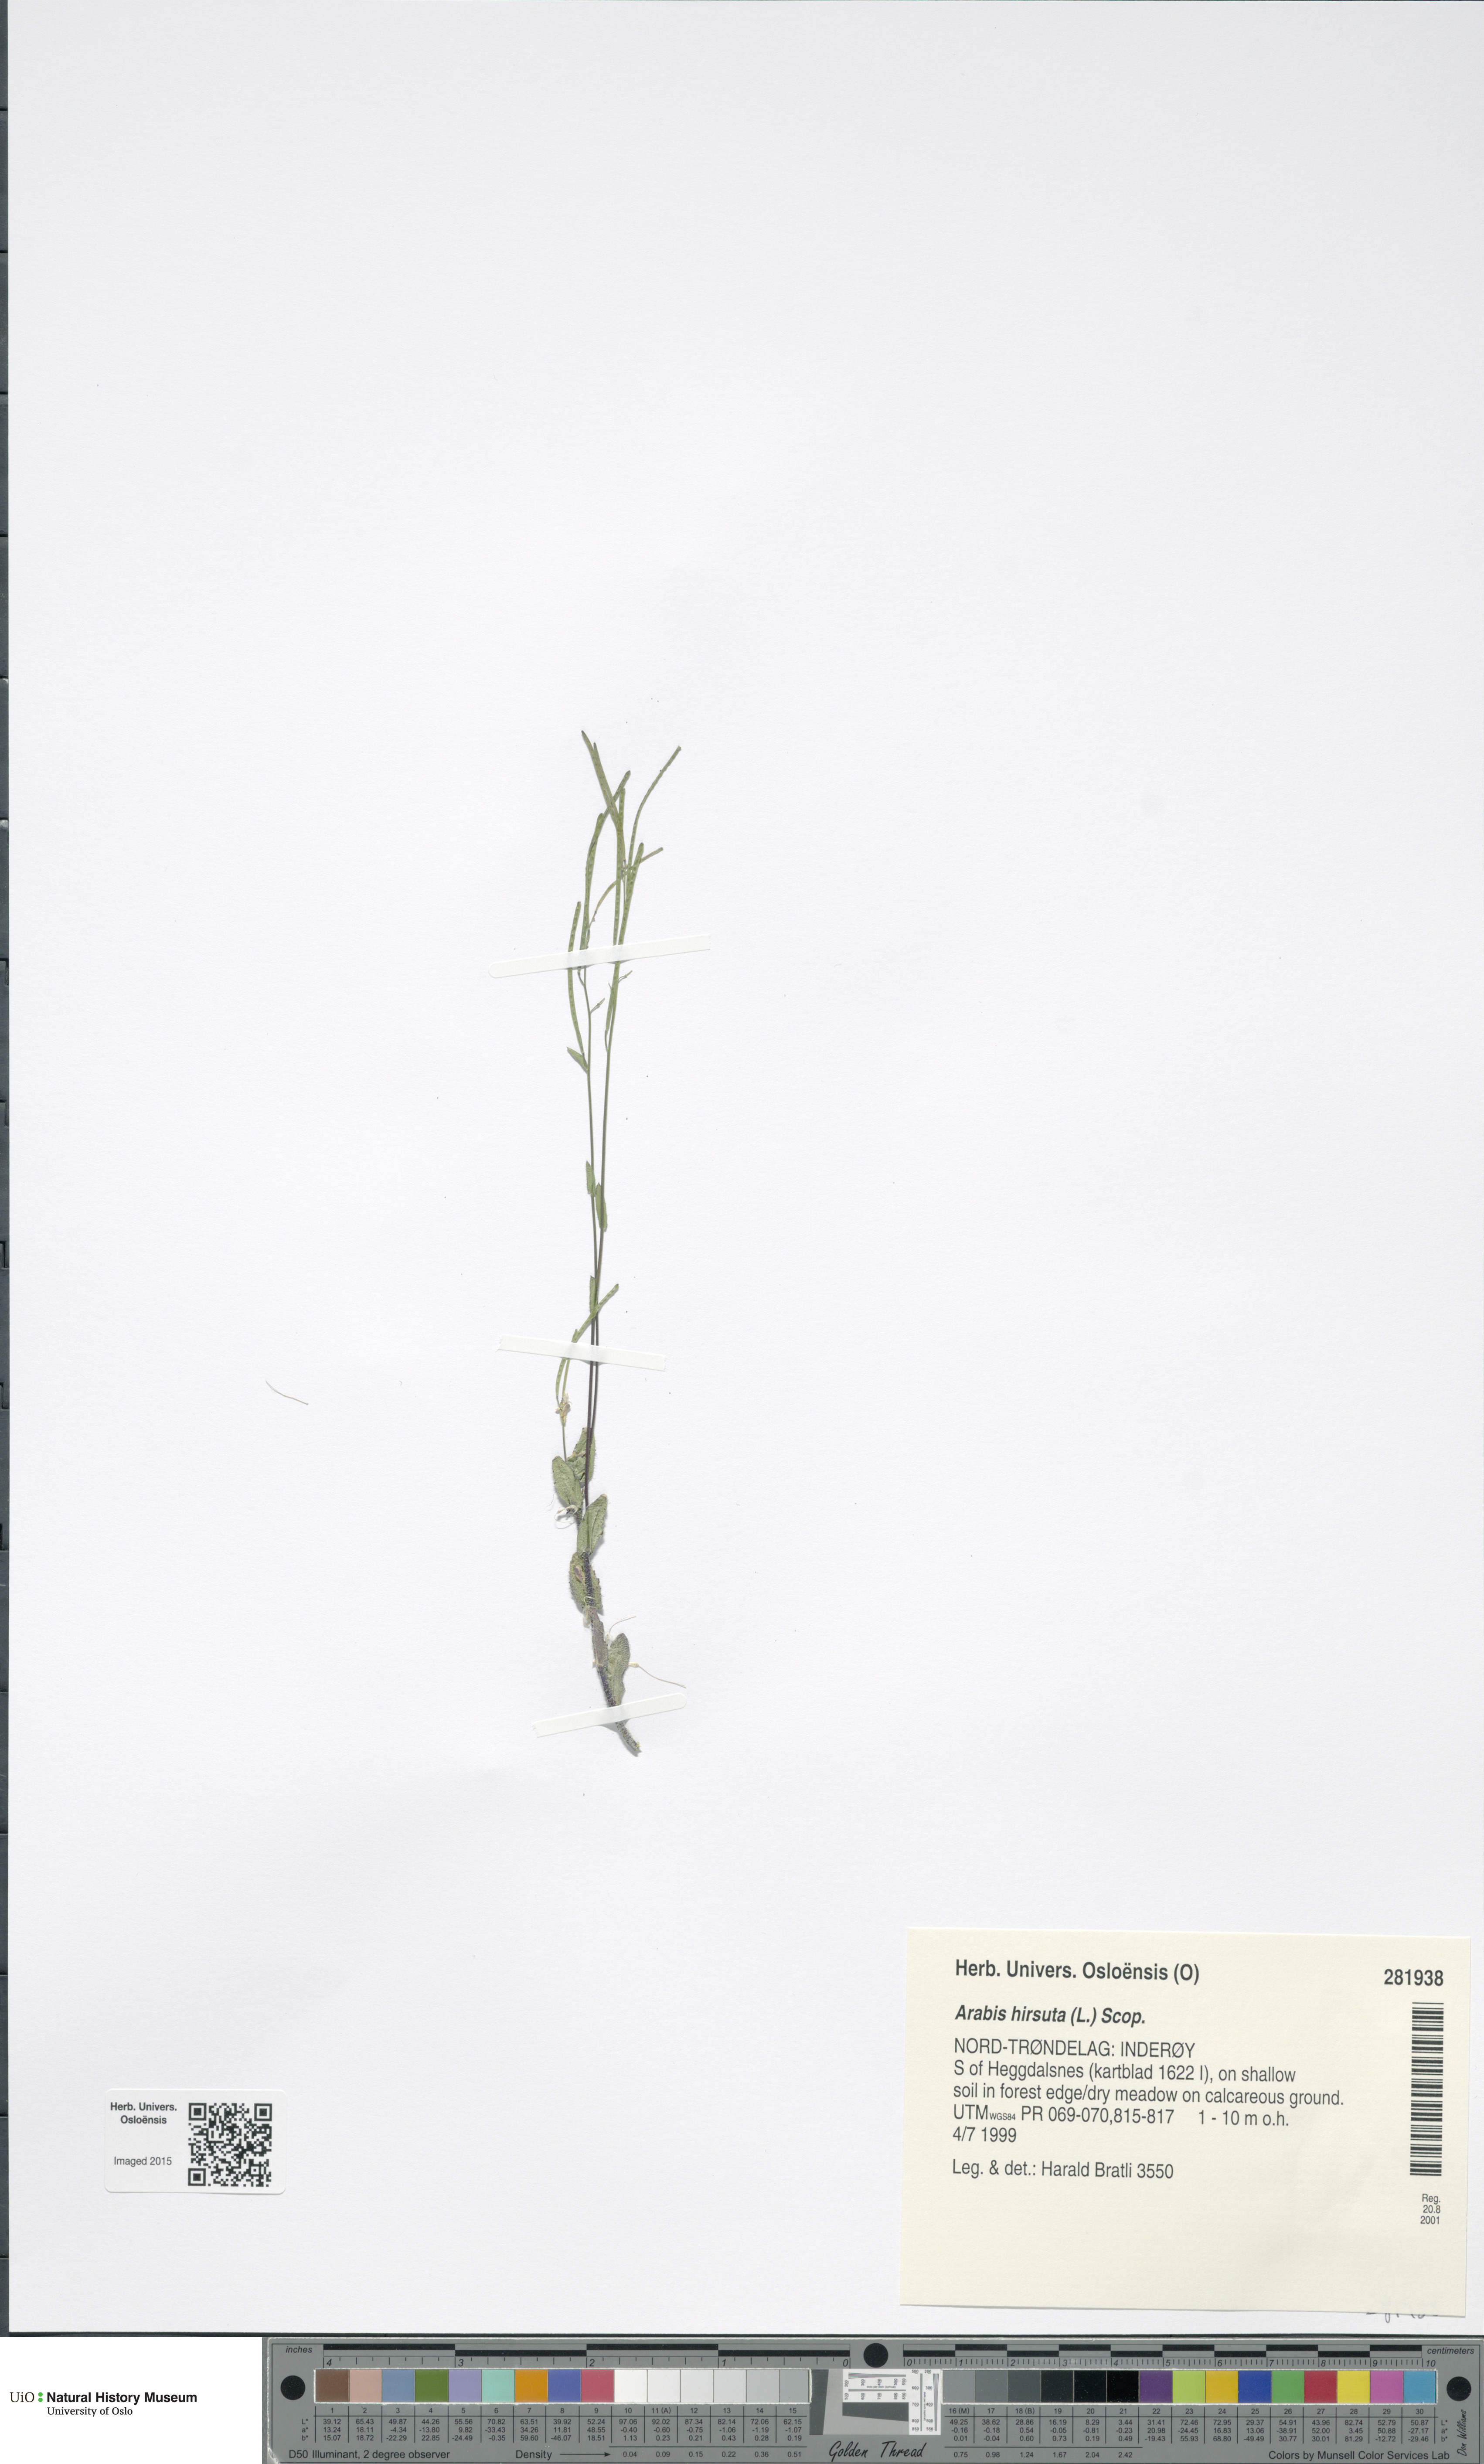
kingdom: Plantae
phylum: Tracheophyta
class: Magnoliopsida
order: Brassicales
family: Brassicaceae
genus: Arabis
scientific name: Arabis hirsuta
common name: Hairy rock-cress
